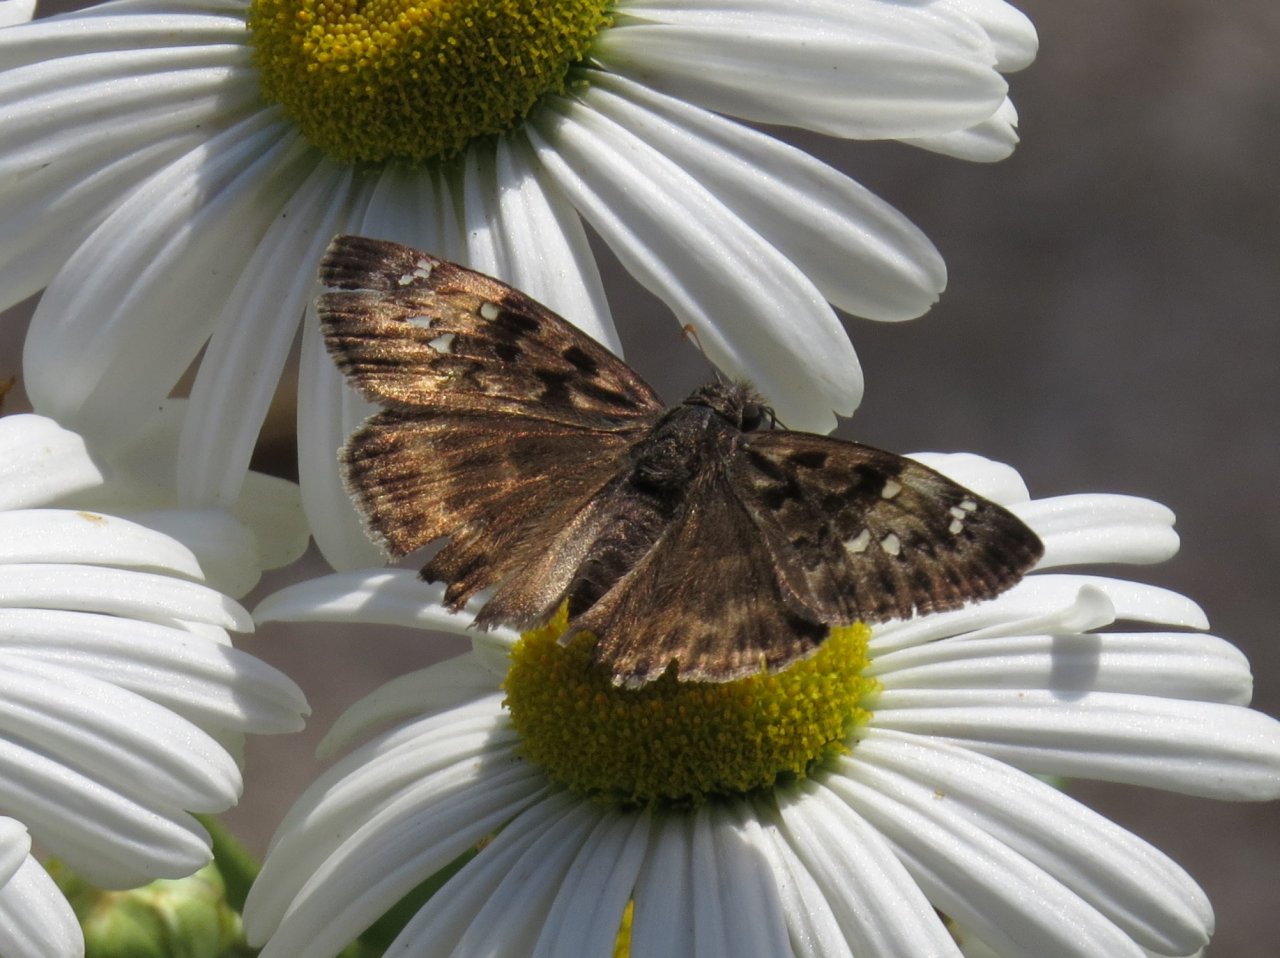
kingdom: Animalia
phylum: Arthropoda
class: Insecta
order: Lepidoptera
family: Hesperiidae
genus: Gesta
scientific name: Gesta
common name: Horace's Duskywing
